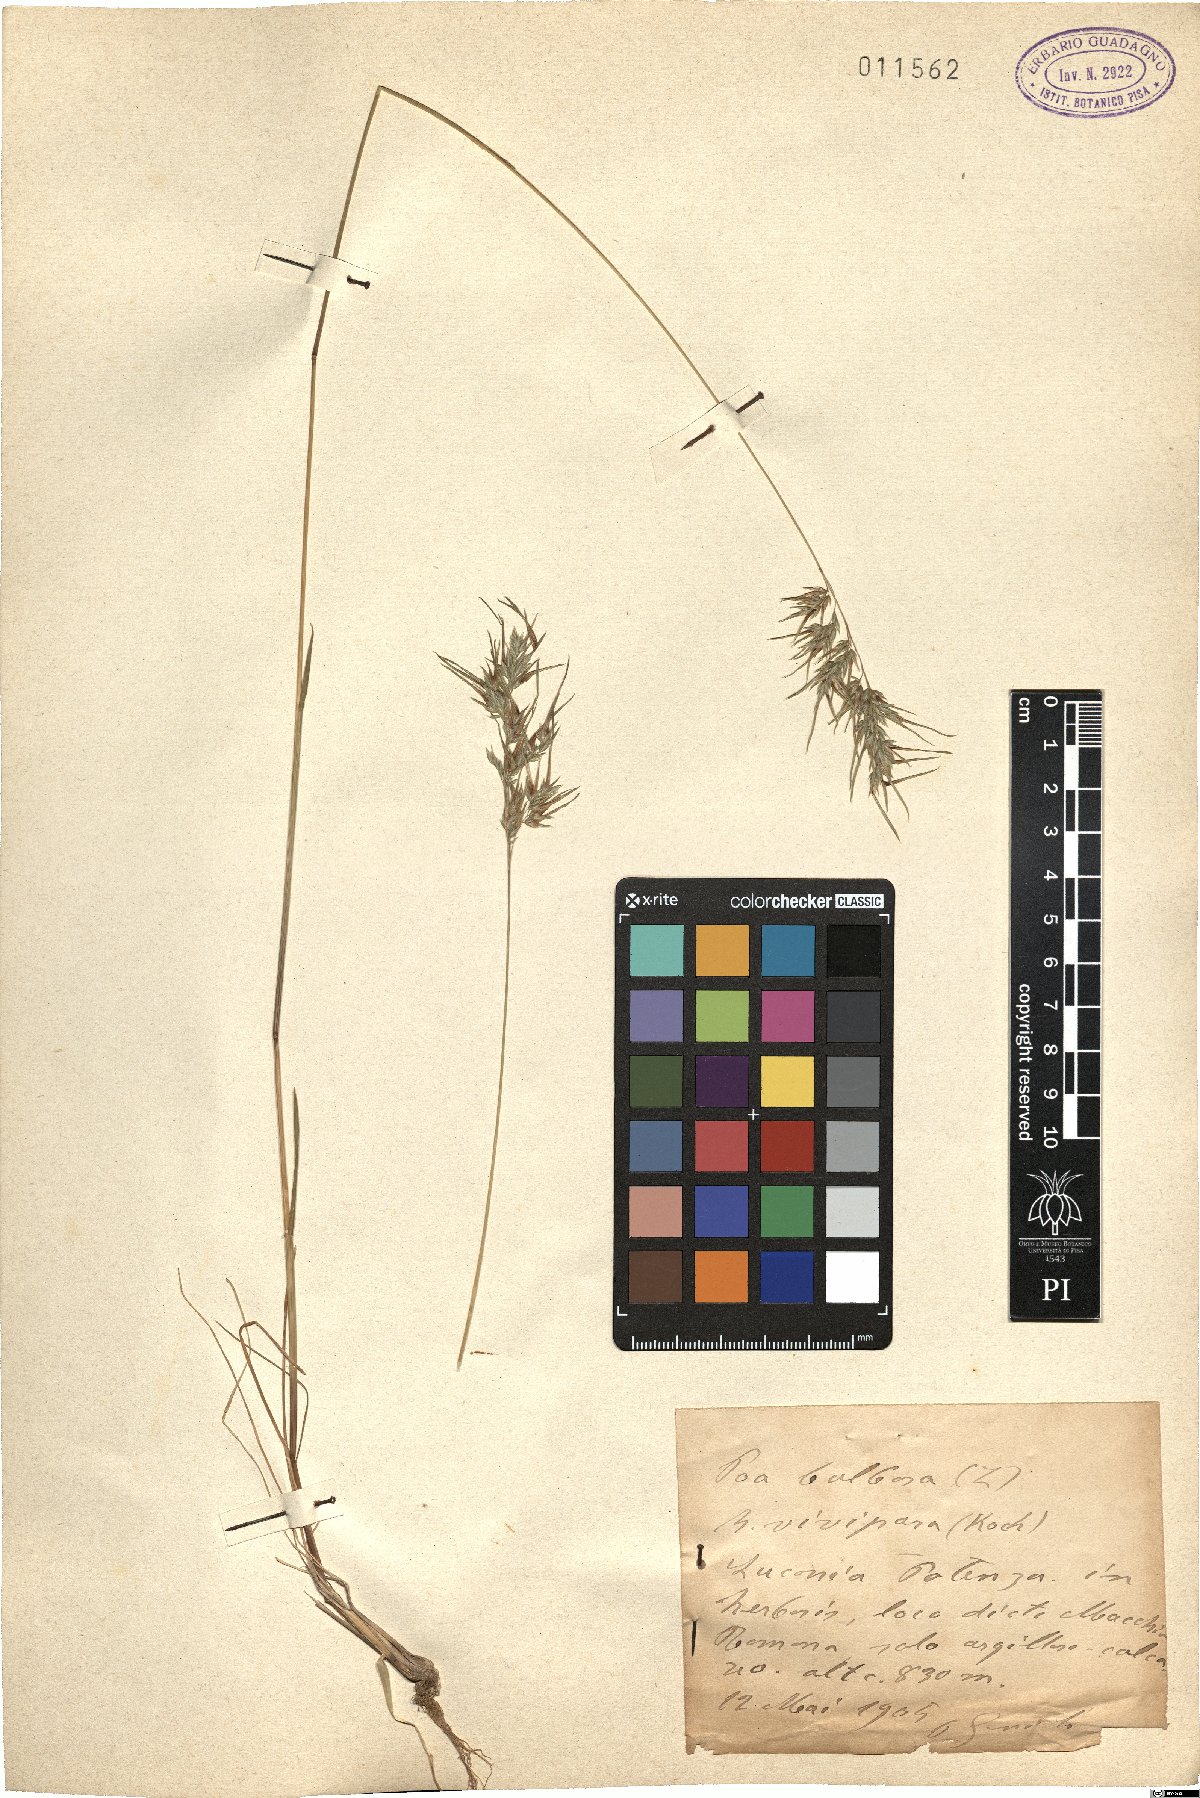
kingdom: Plantae
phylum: Tracheophyta
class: Liliopsida
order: Poales
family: Poaceae
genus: Poa
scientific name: Poa bulbosa
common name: Bulbous bluegrass
